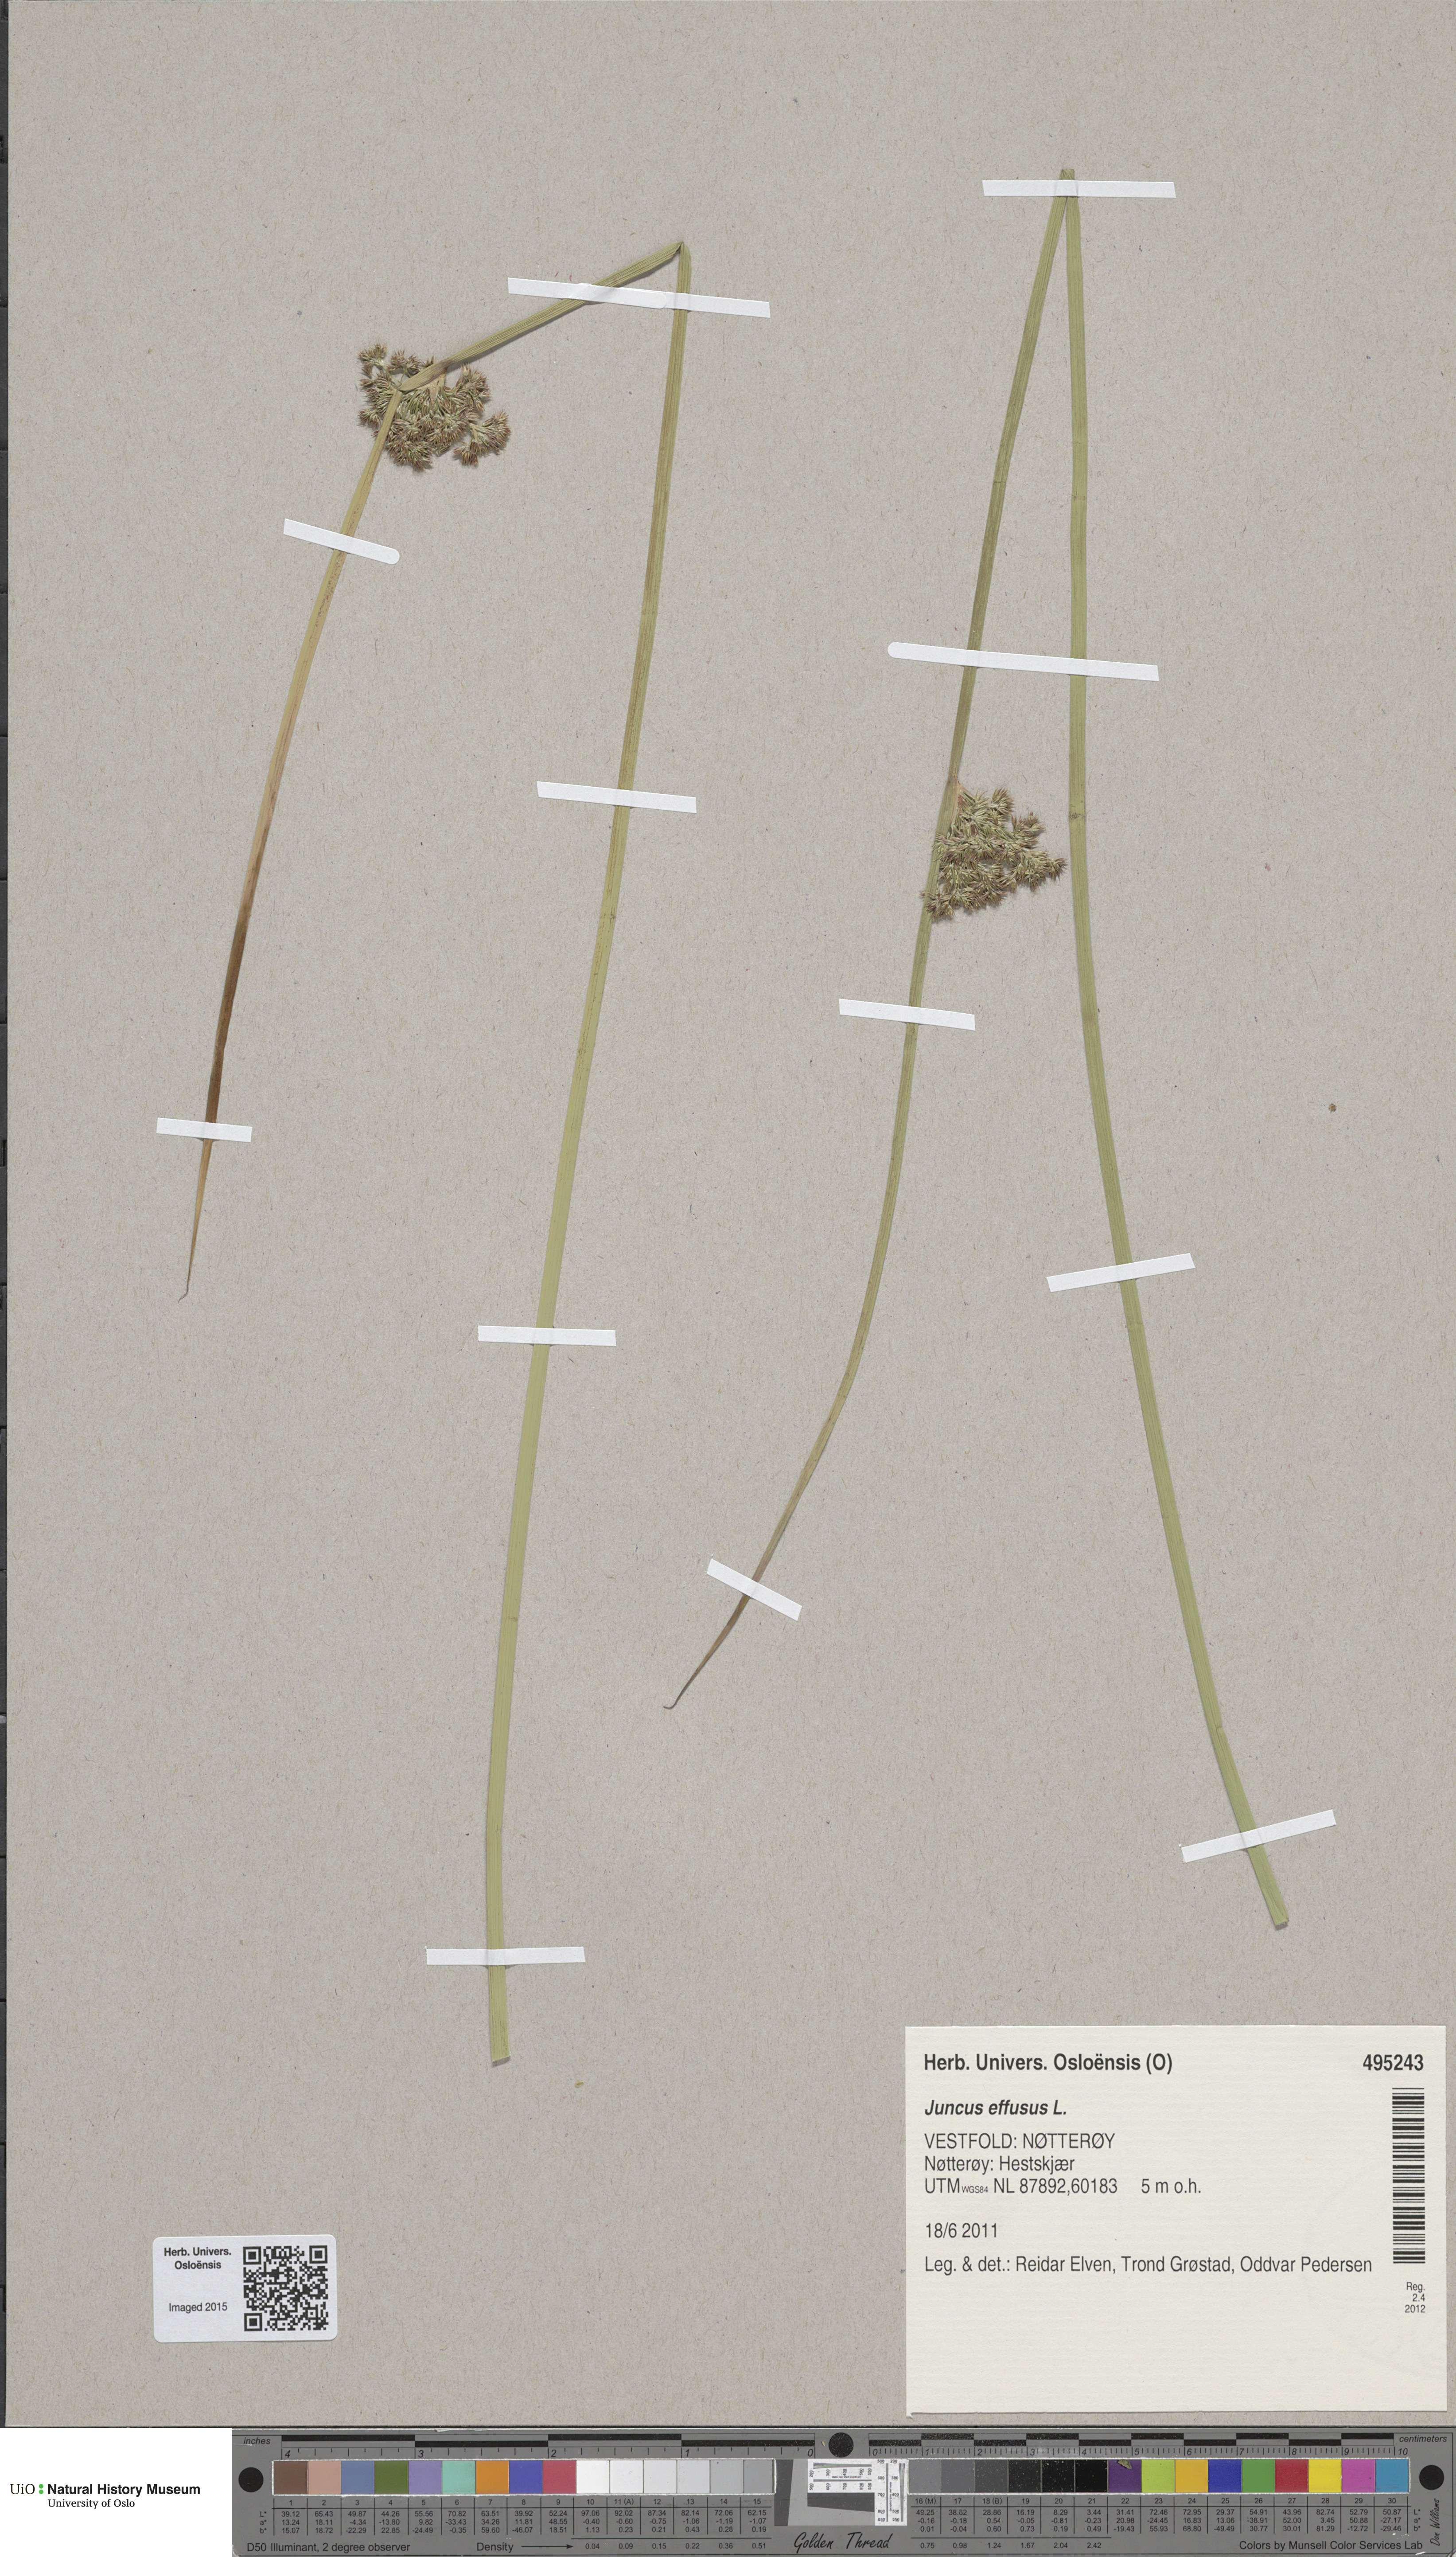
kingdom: Plantae
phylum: Tracheophyta
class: Liliopsida
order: Poales
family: Juncaceae
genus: Juncus
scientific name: Juncus effusus
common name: Soft rush
